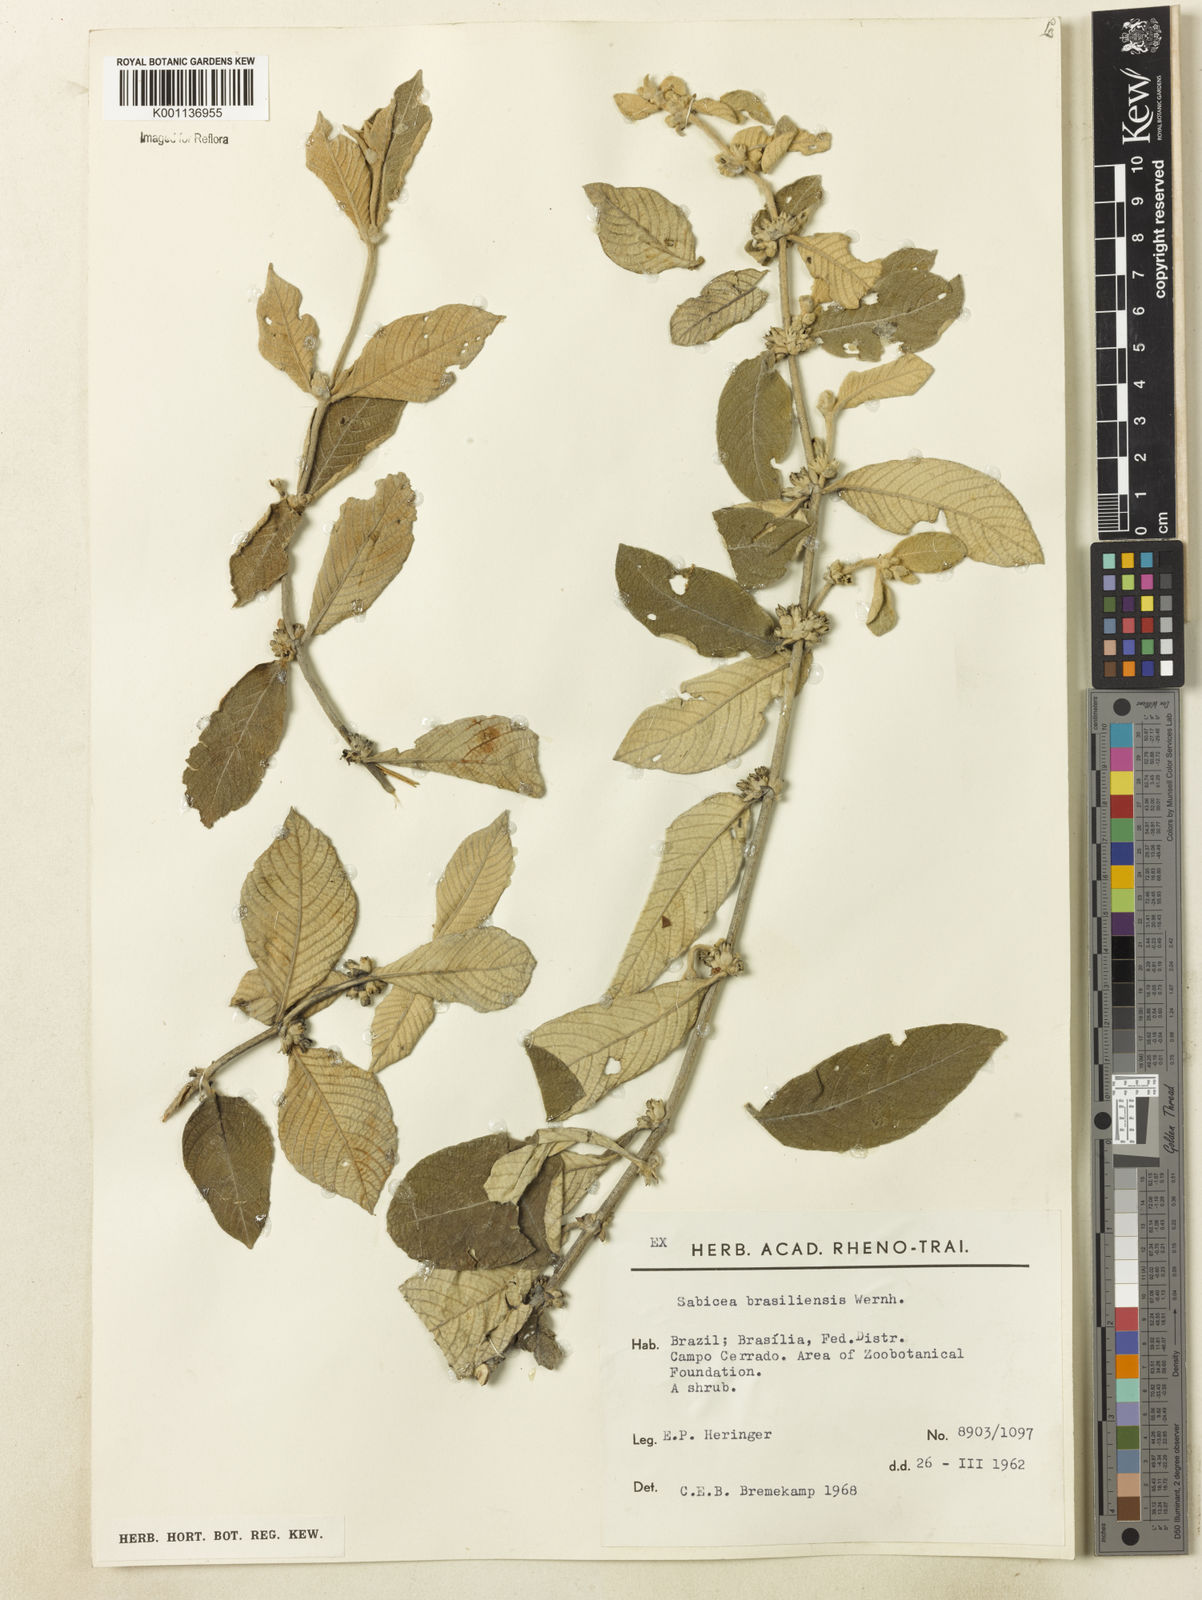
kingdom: Plantae
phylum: Tracheophyta
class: Magnoliopsida
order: Gentianales
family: Rubiaceae
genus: Sabicea
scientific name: Sabicea brasiliensis
